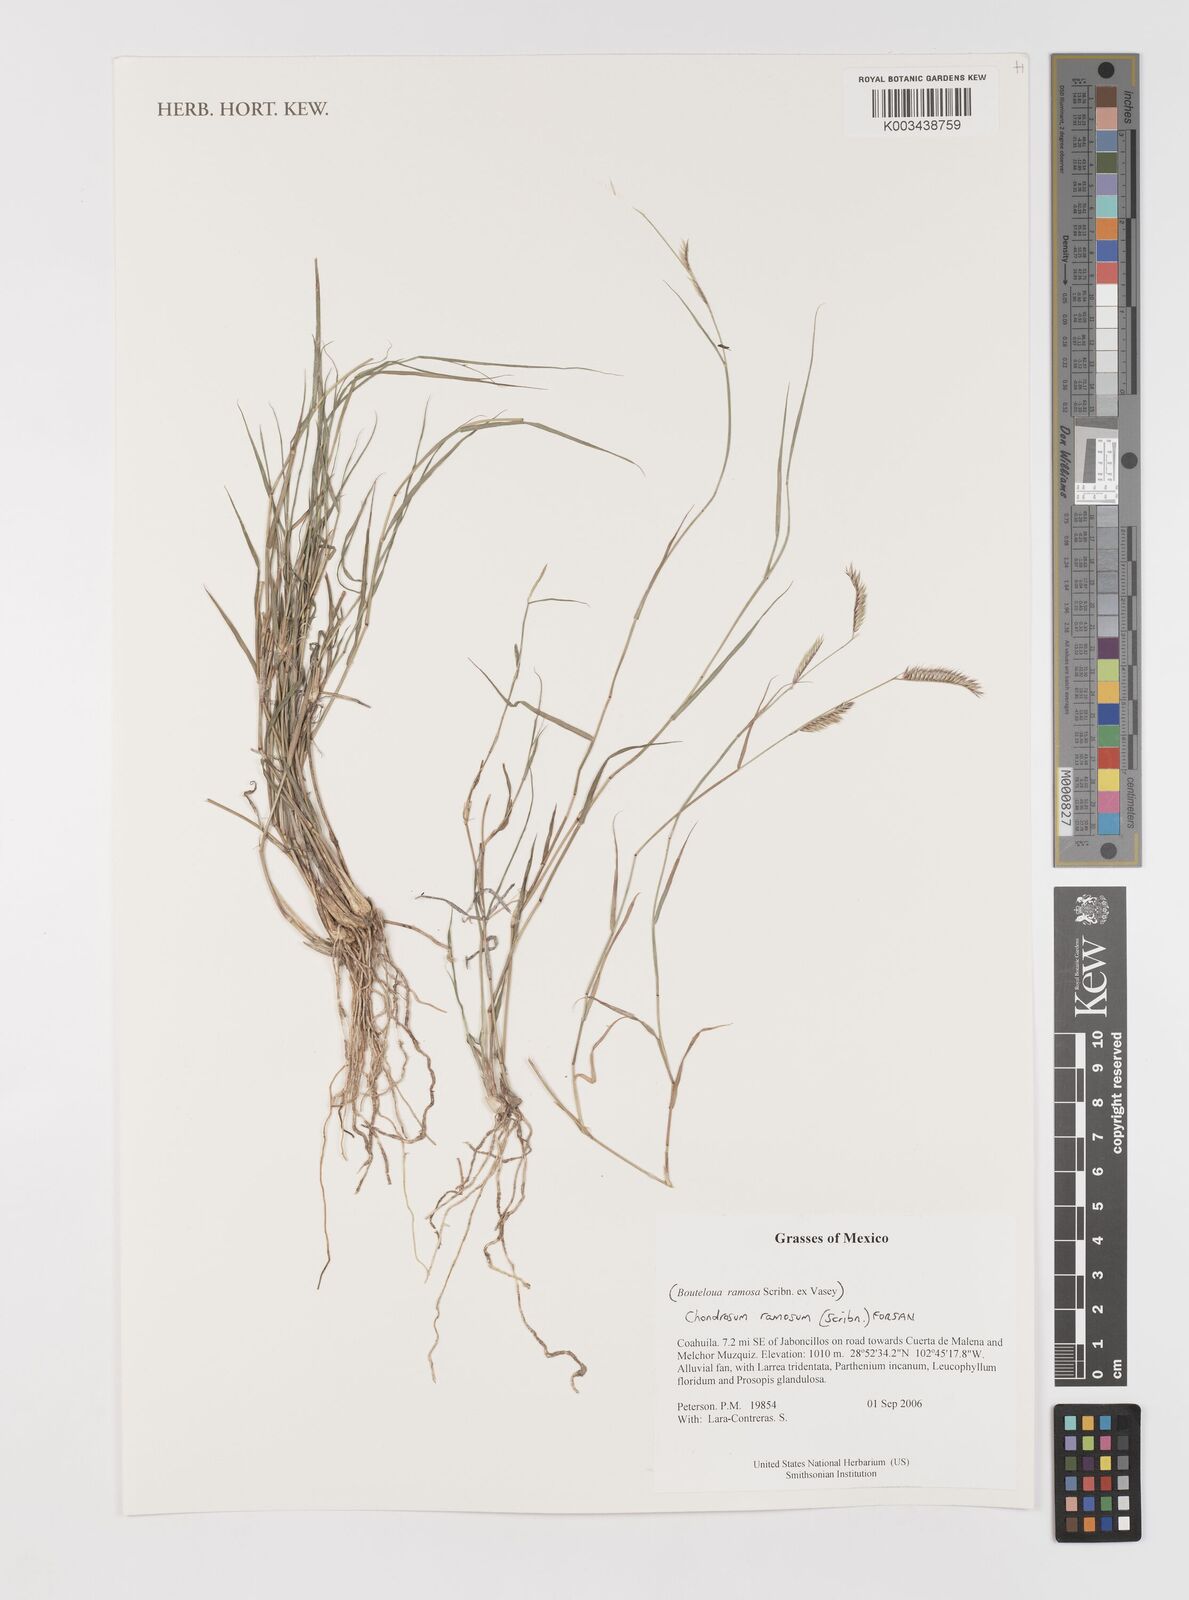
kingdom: Plantae
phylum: Tracheophyta
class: Liliopsida
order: Poales
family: Poaceae
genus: Bouteloua
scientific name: Bouteloua ramosa
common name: Chino grama
